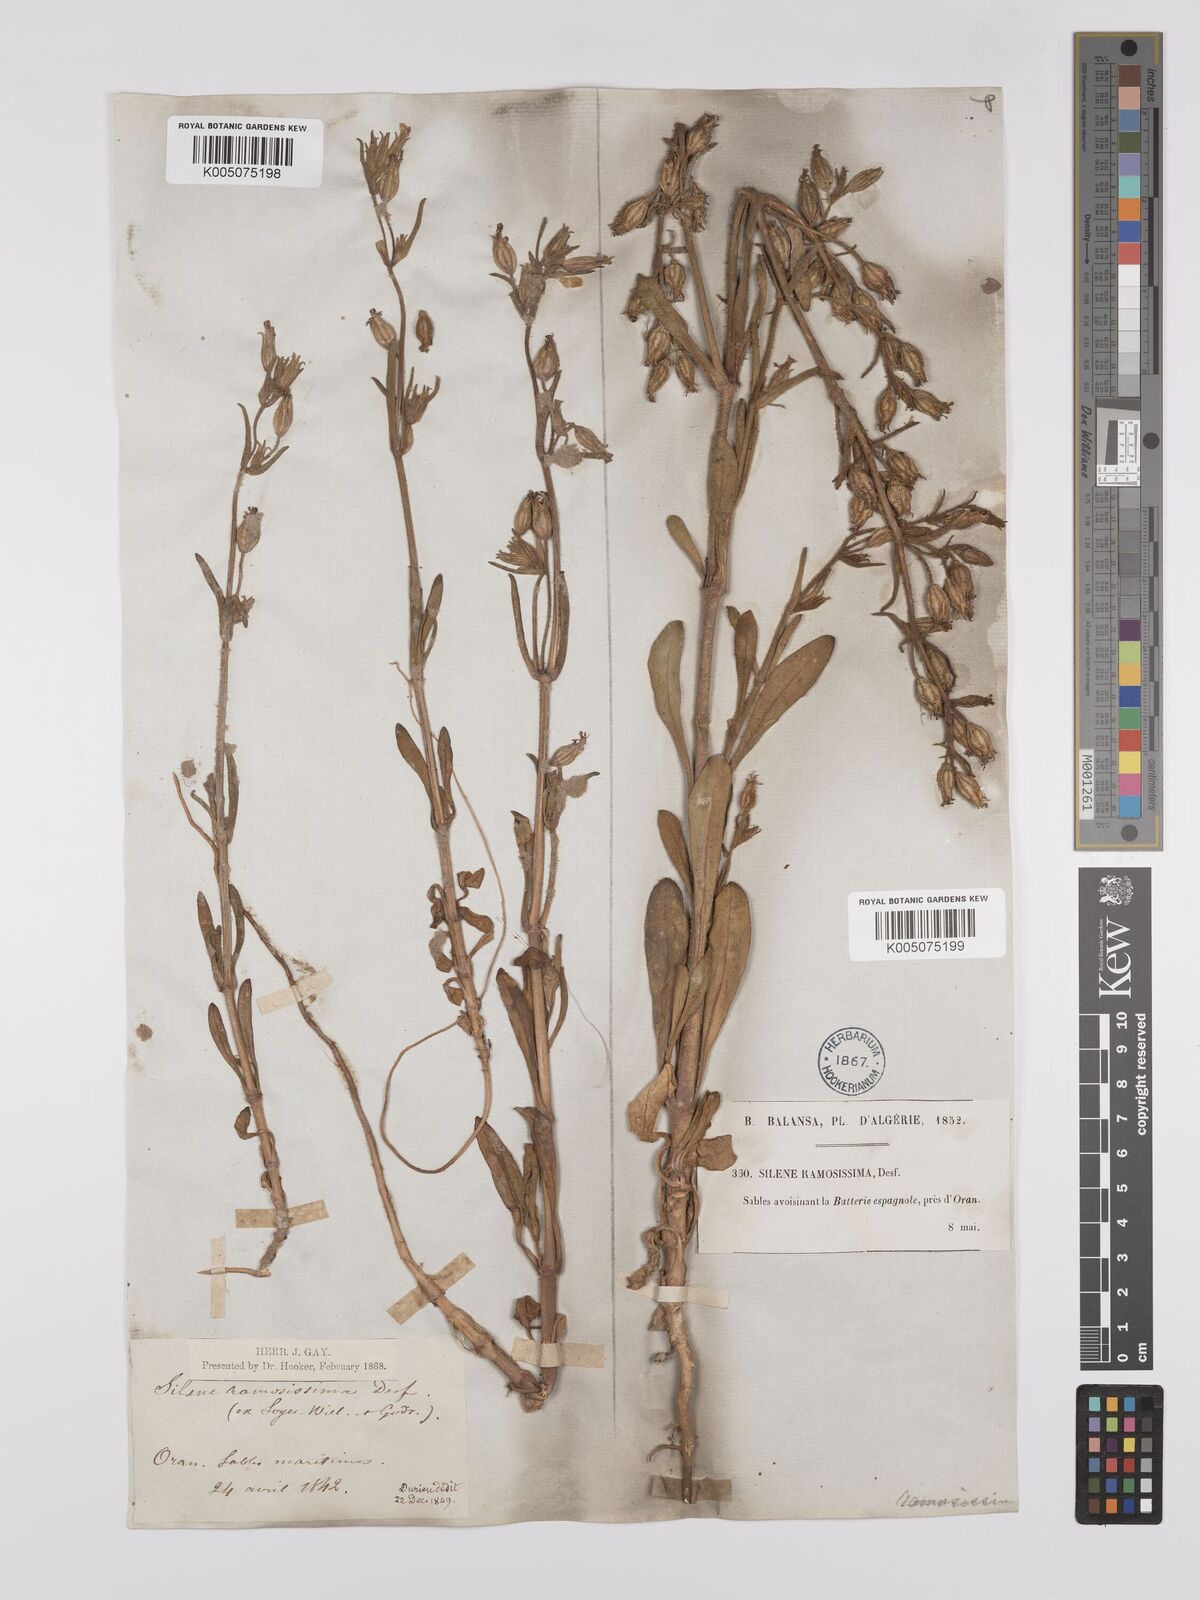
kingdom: Plantae
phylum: Tracheophyta
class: Magnoliopsida
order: Caryophyllales
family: Caryophyllaceae
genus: Silene
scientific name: Silene ramosissima
